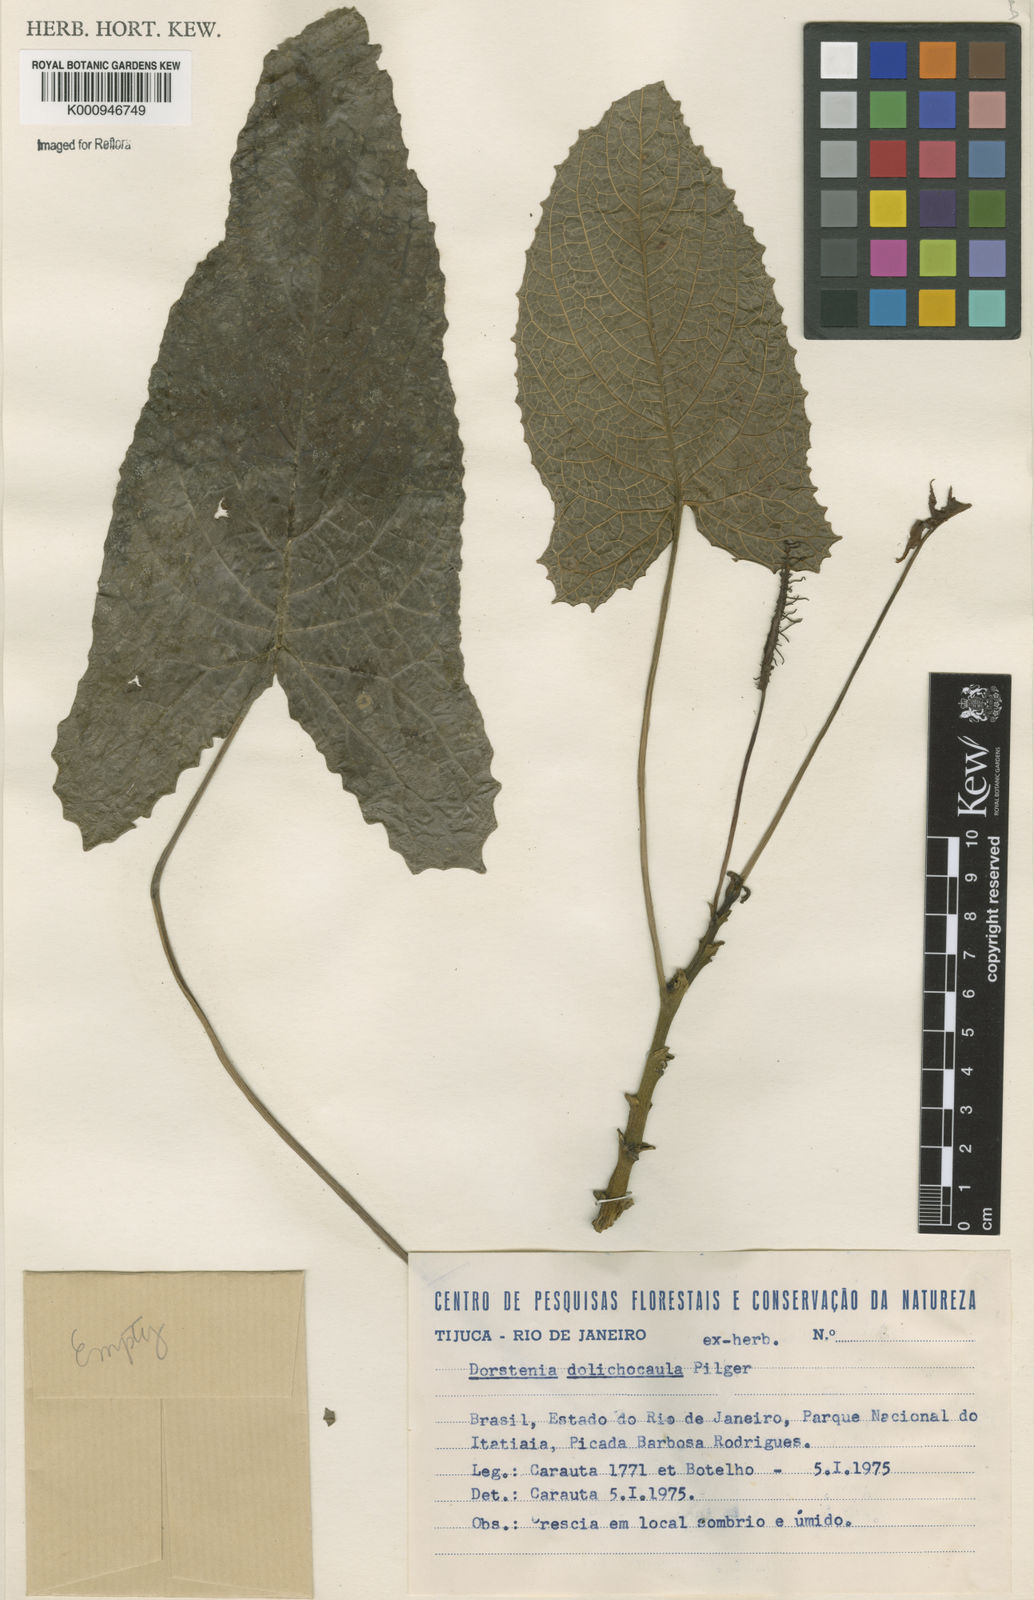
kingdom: Plantae
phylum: Tracheophyta
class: Magnoliopsida
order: Rosales
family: Moraceae
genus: Dorstenia
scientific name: Dorstenia ramosa
